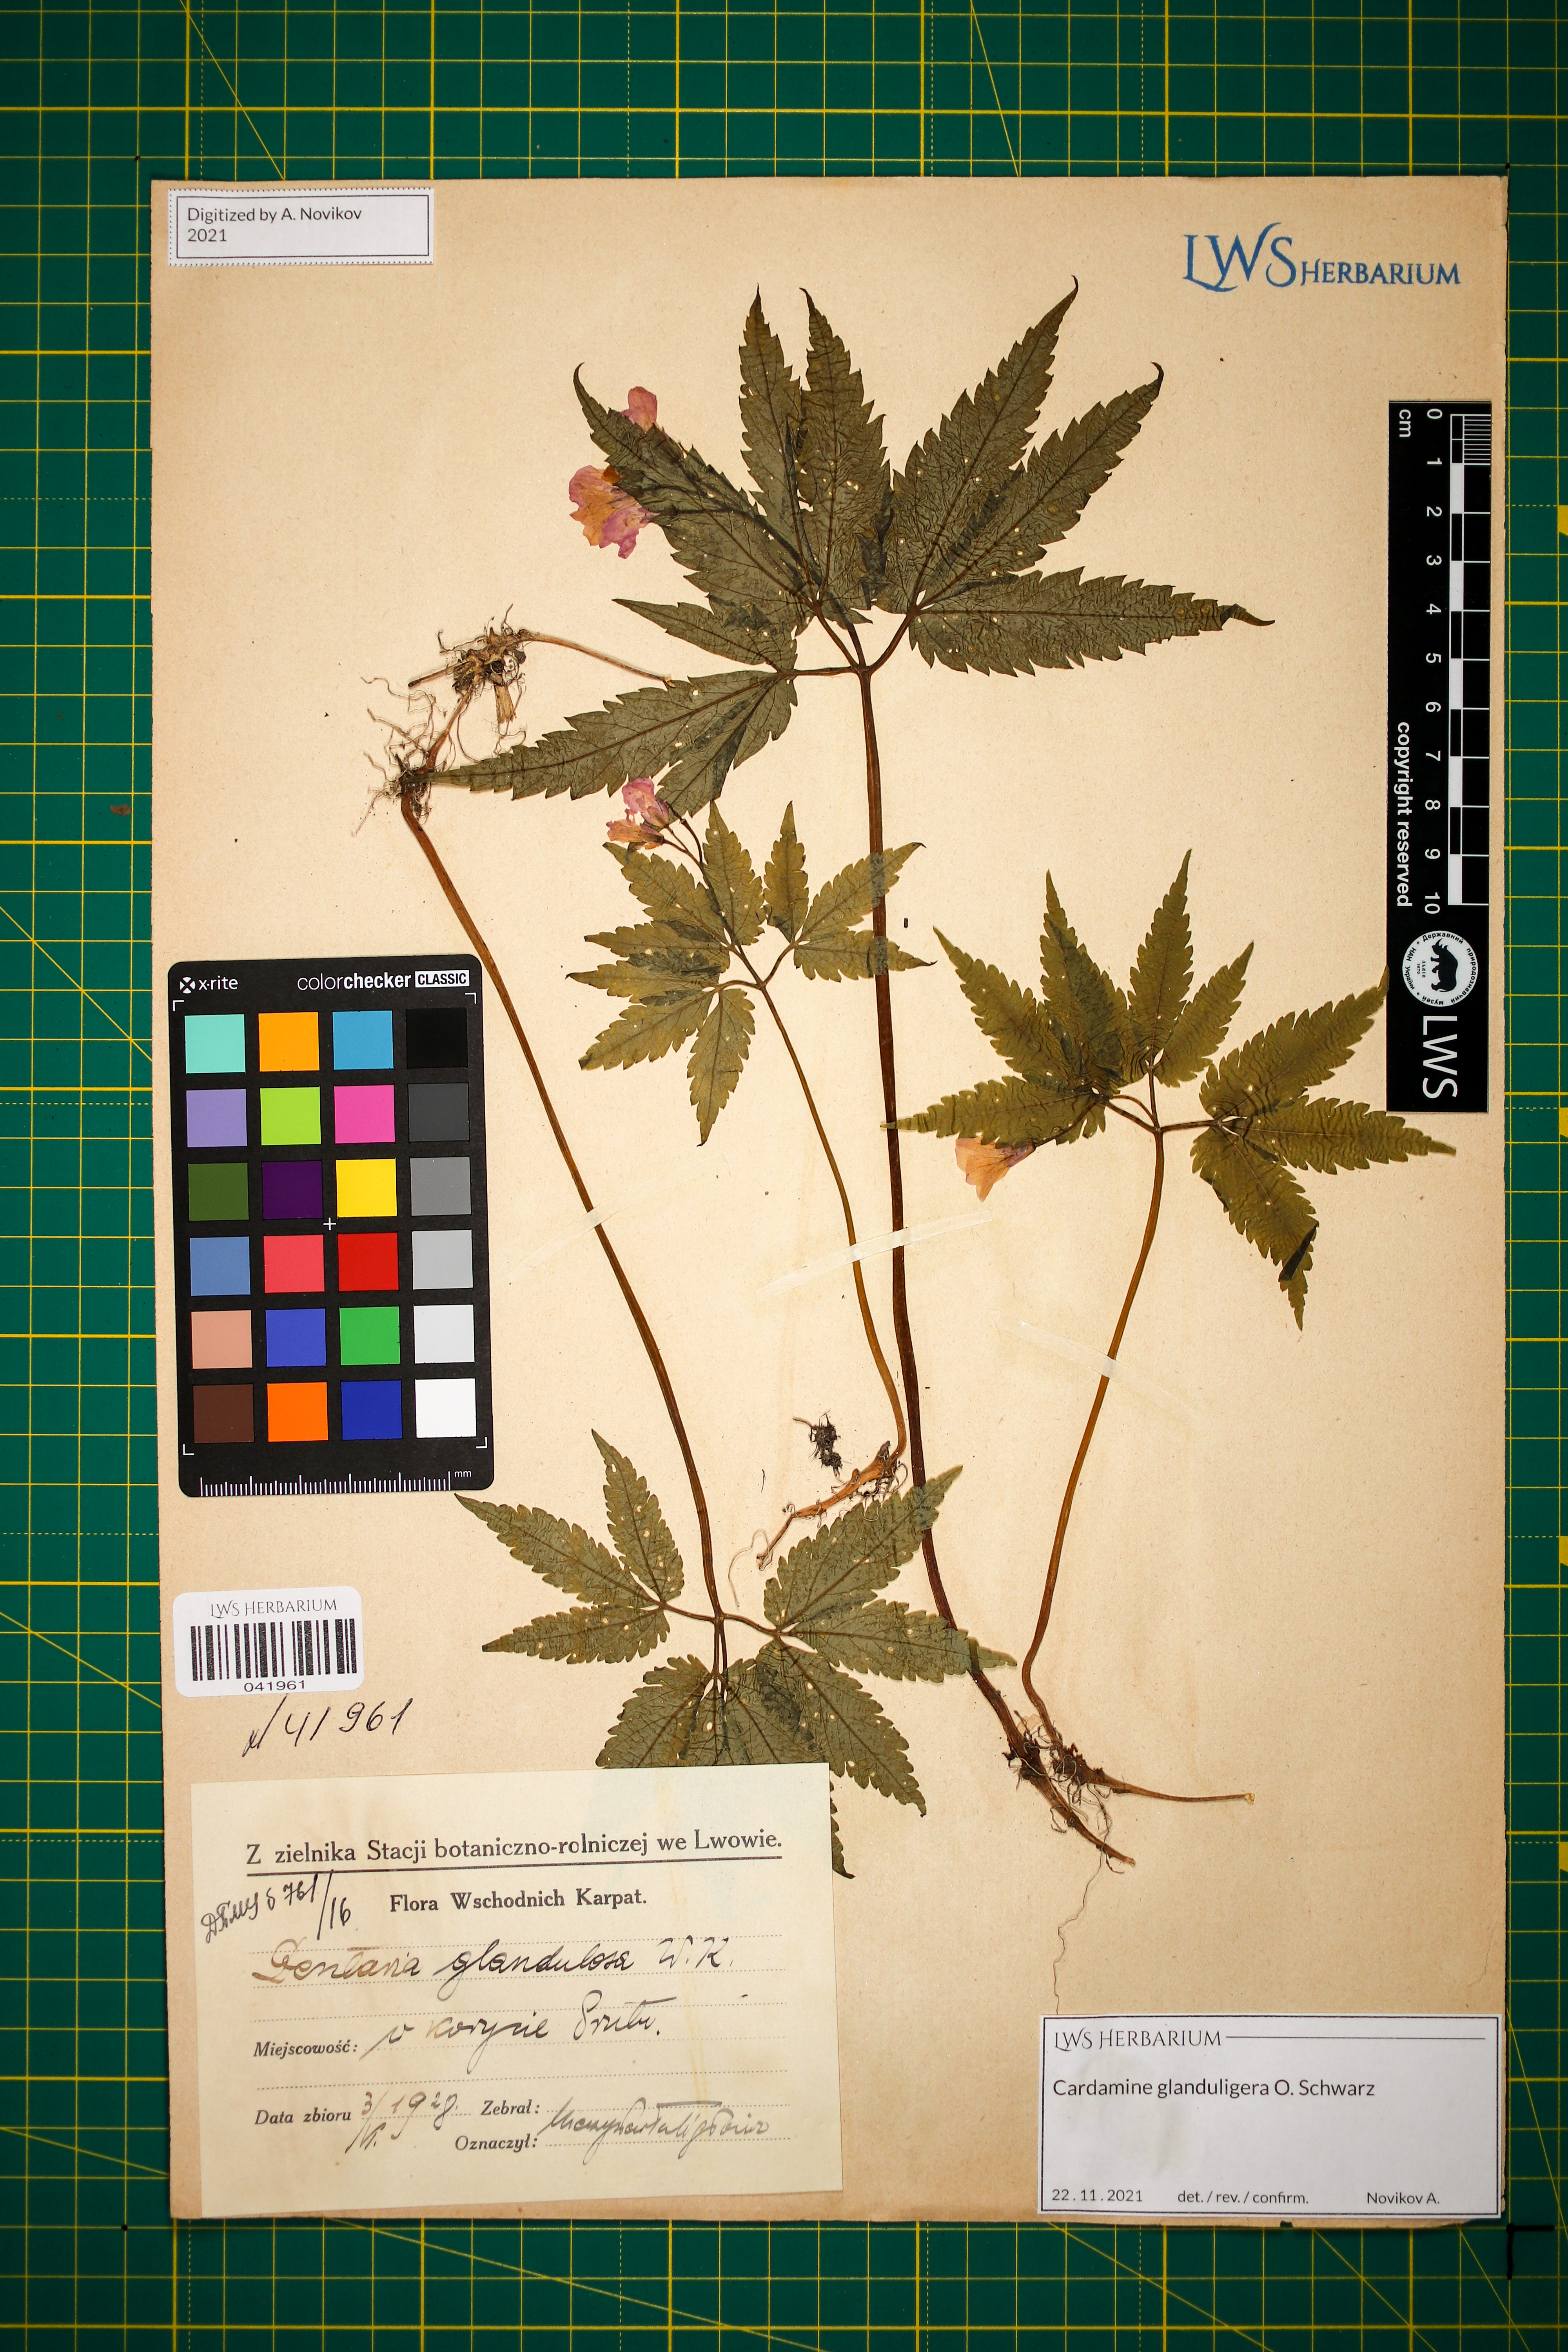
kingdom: Plantae
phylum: Tracheophyta
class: Magnoliopsida
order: Brassicales
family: Brassicaceae
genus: Cardamine
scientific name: Cardamine glanduligera
